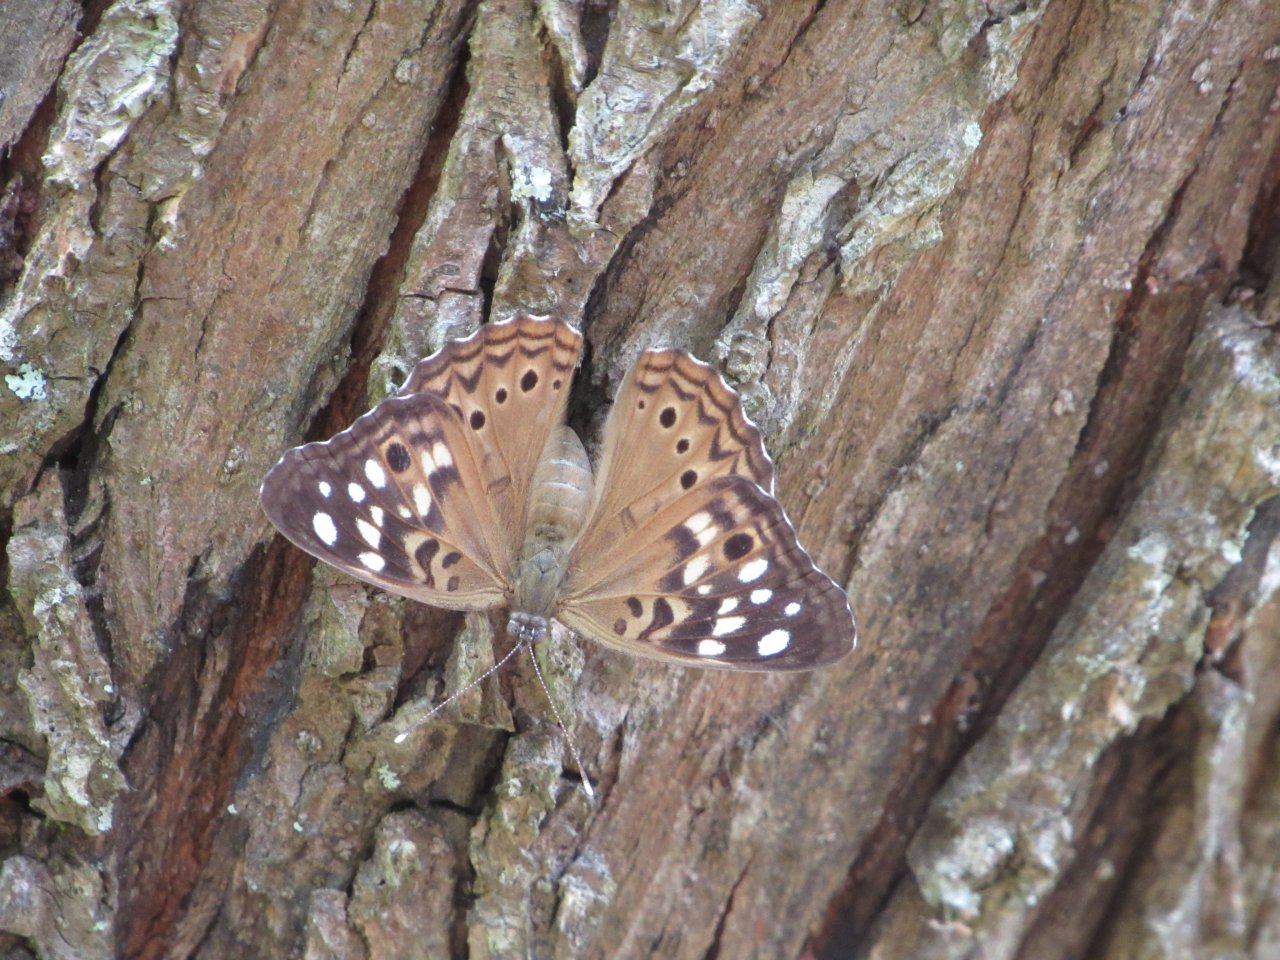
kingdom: Animalia
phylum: Arthropoda
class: Insecta
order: Lepidoptera
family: Nymphalidae
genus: Asterocampa
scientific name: Asterocampa celtis
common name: Hackberry Emperor
